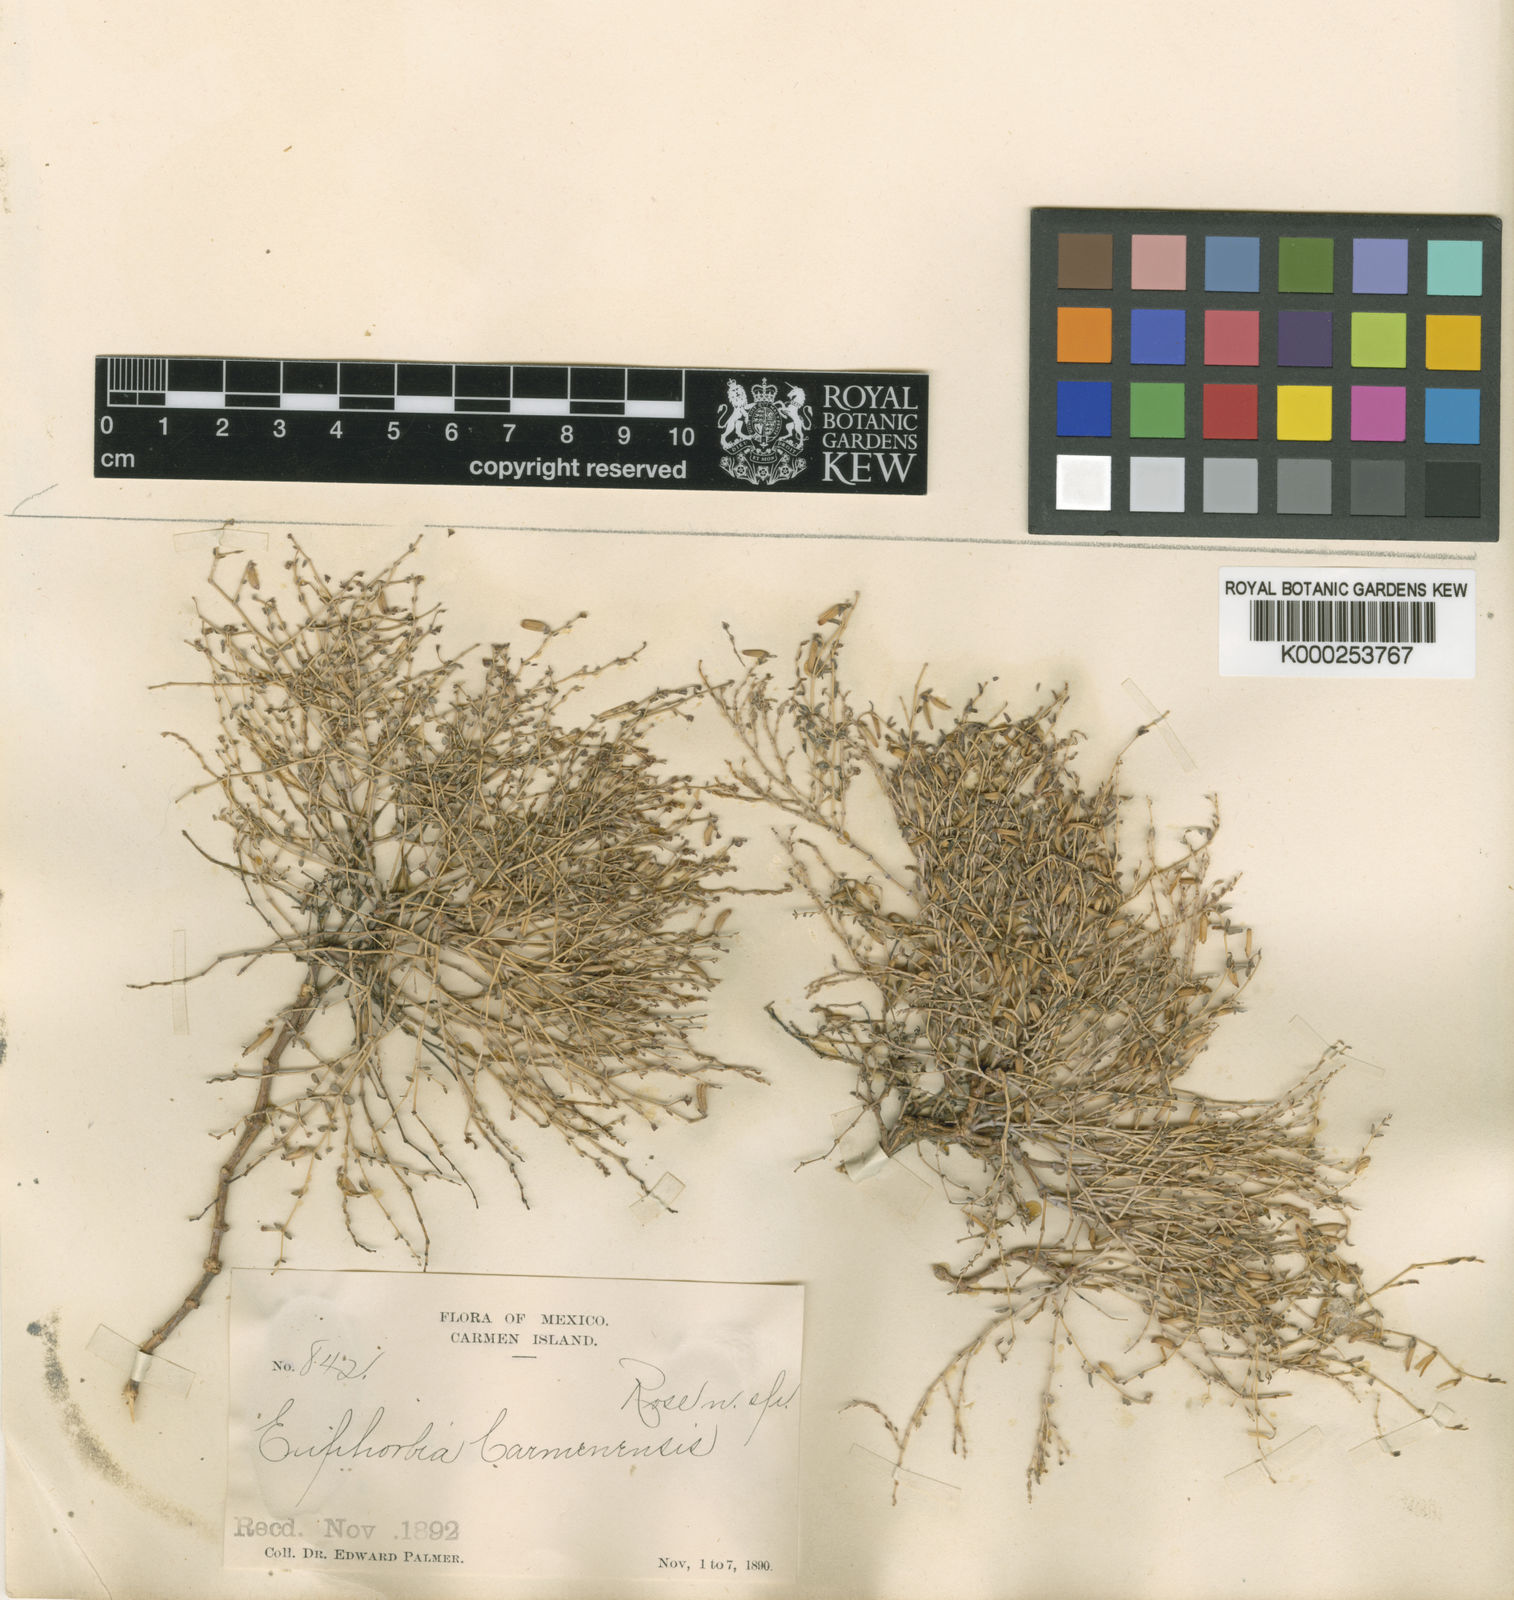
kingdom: Plantae
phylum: Tracheophyta
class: Magnoliopsida
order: Malpighiales
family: Euphorbiaceae
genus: Euphorbia
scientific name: Euphorbia polycarpa
